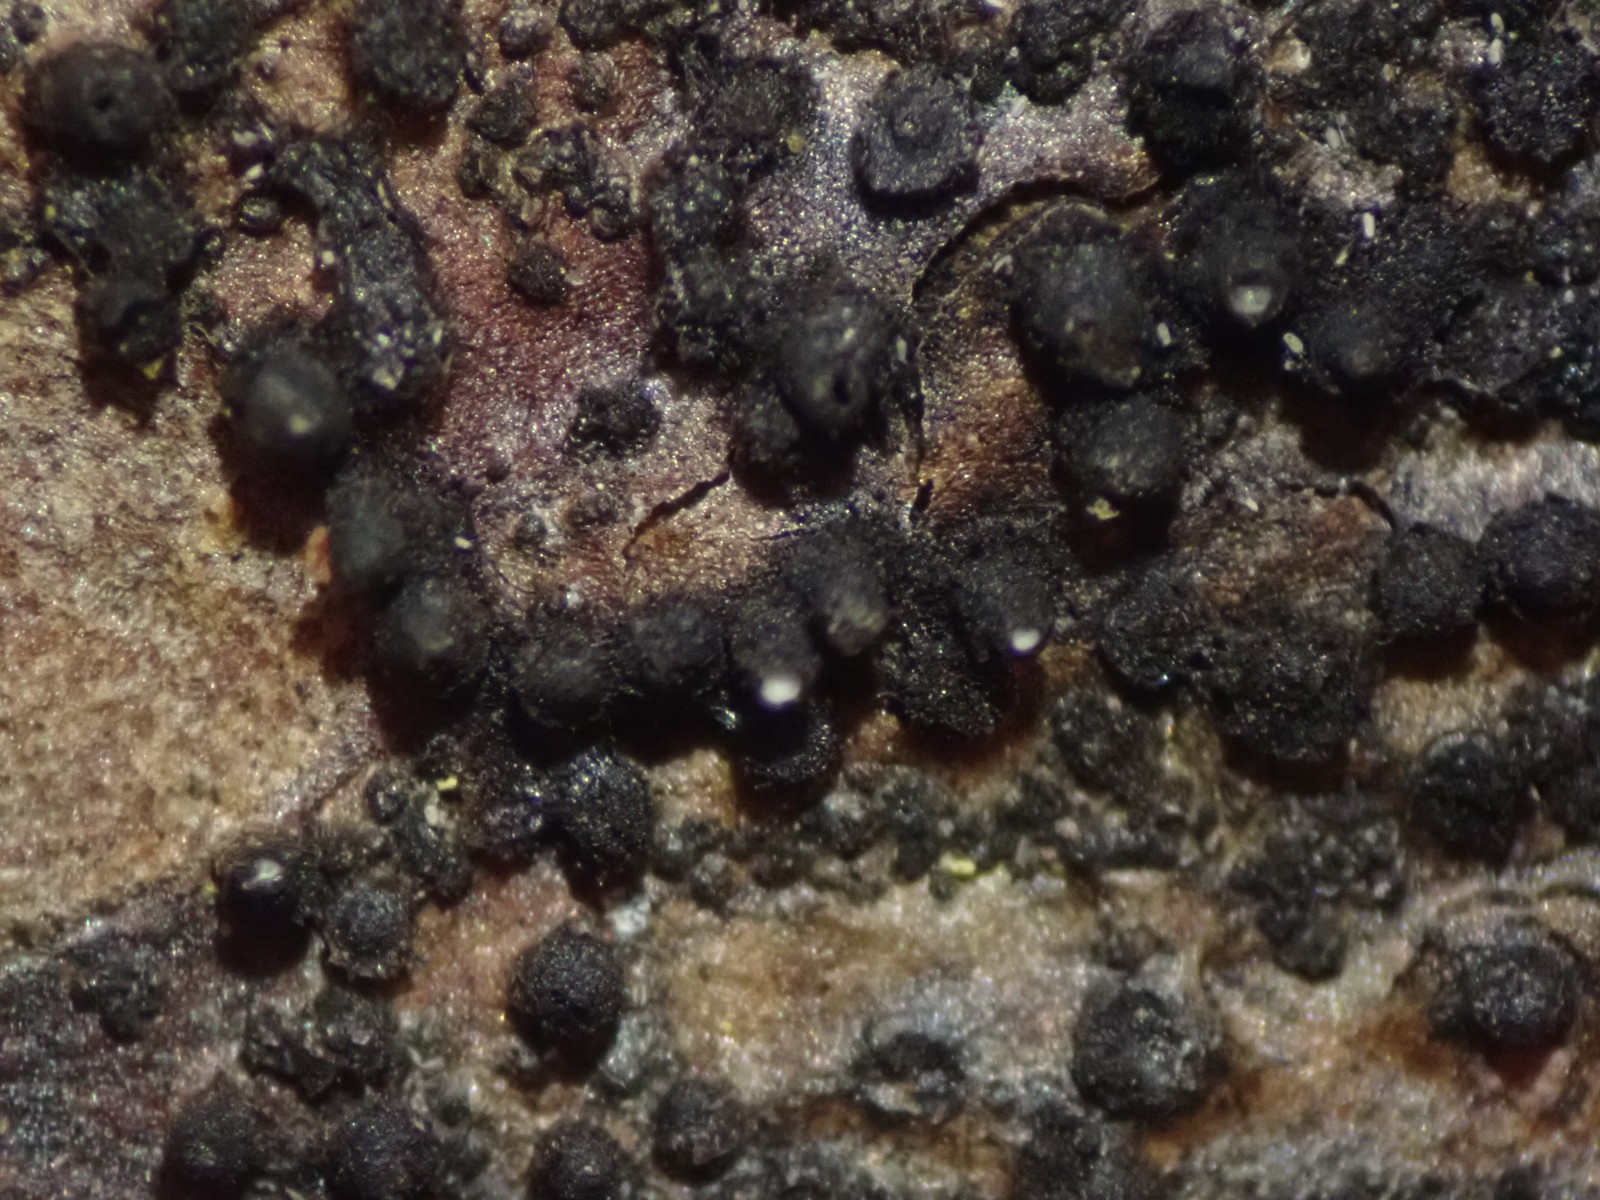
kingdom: Fungi
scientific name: Fungi
